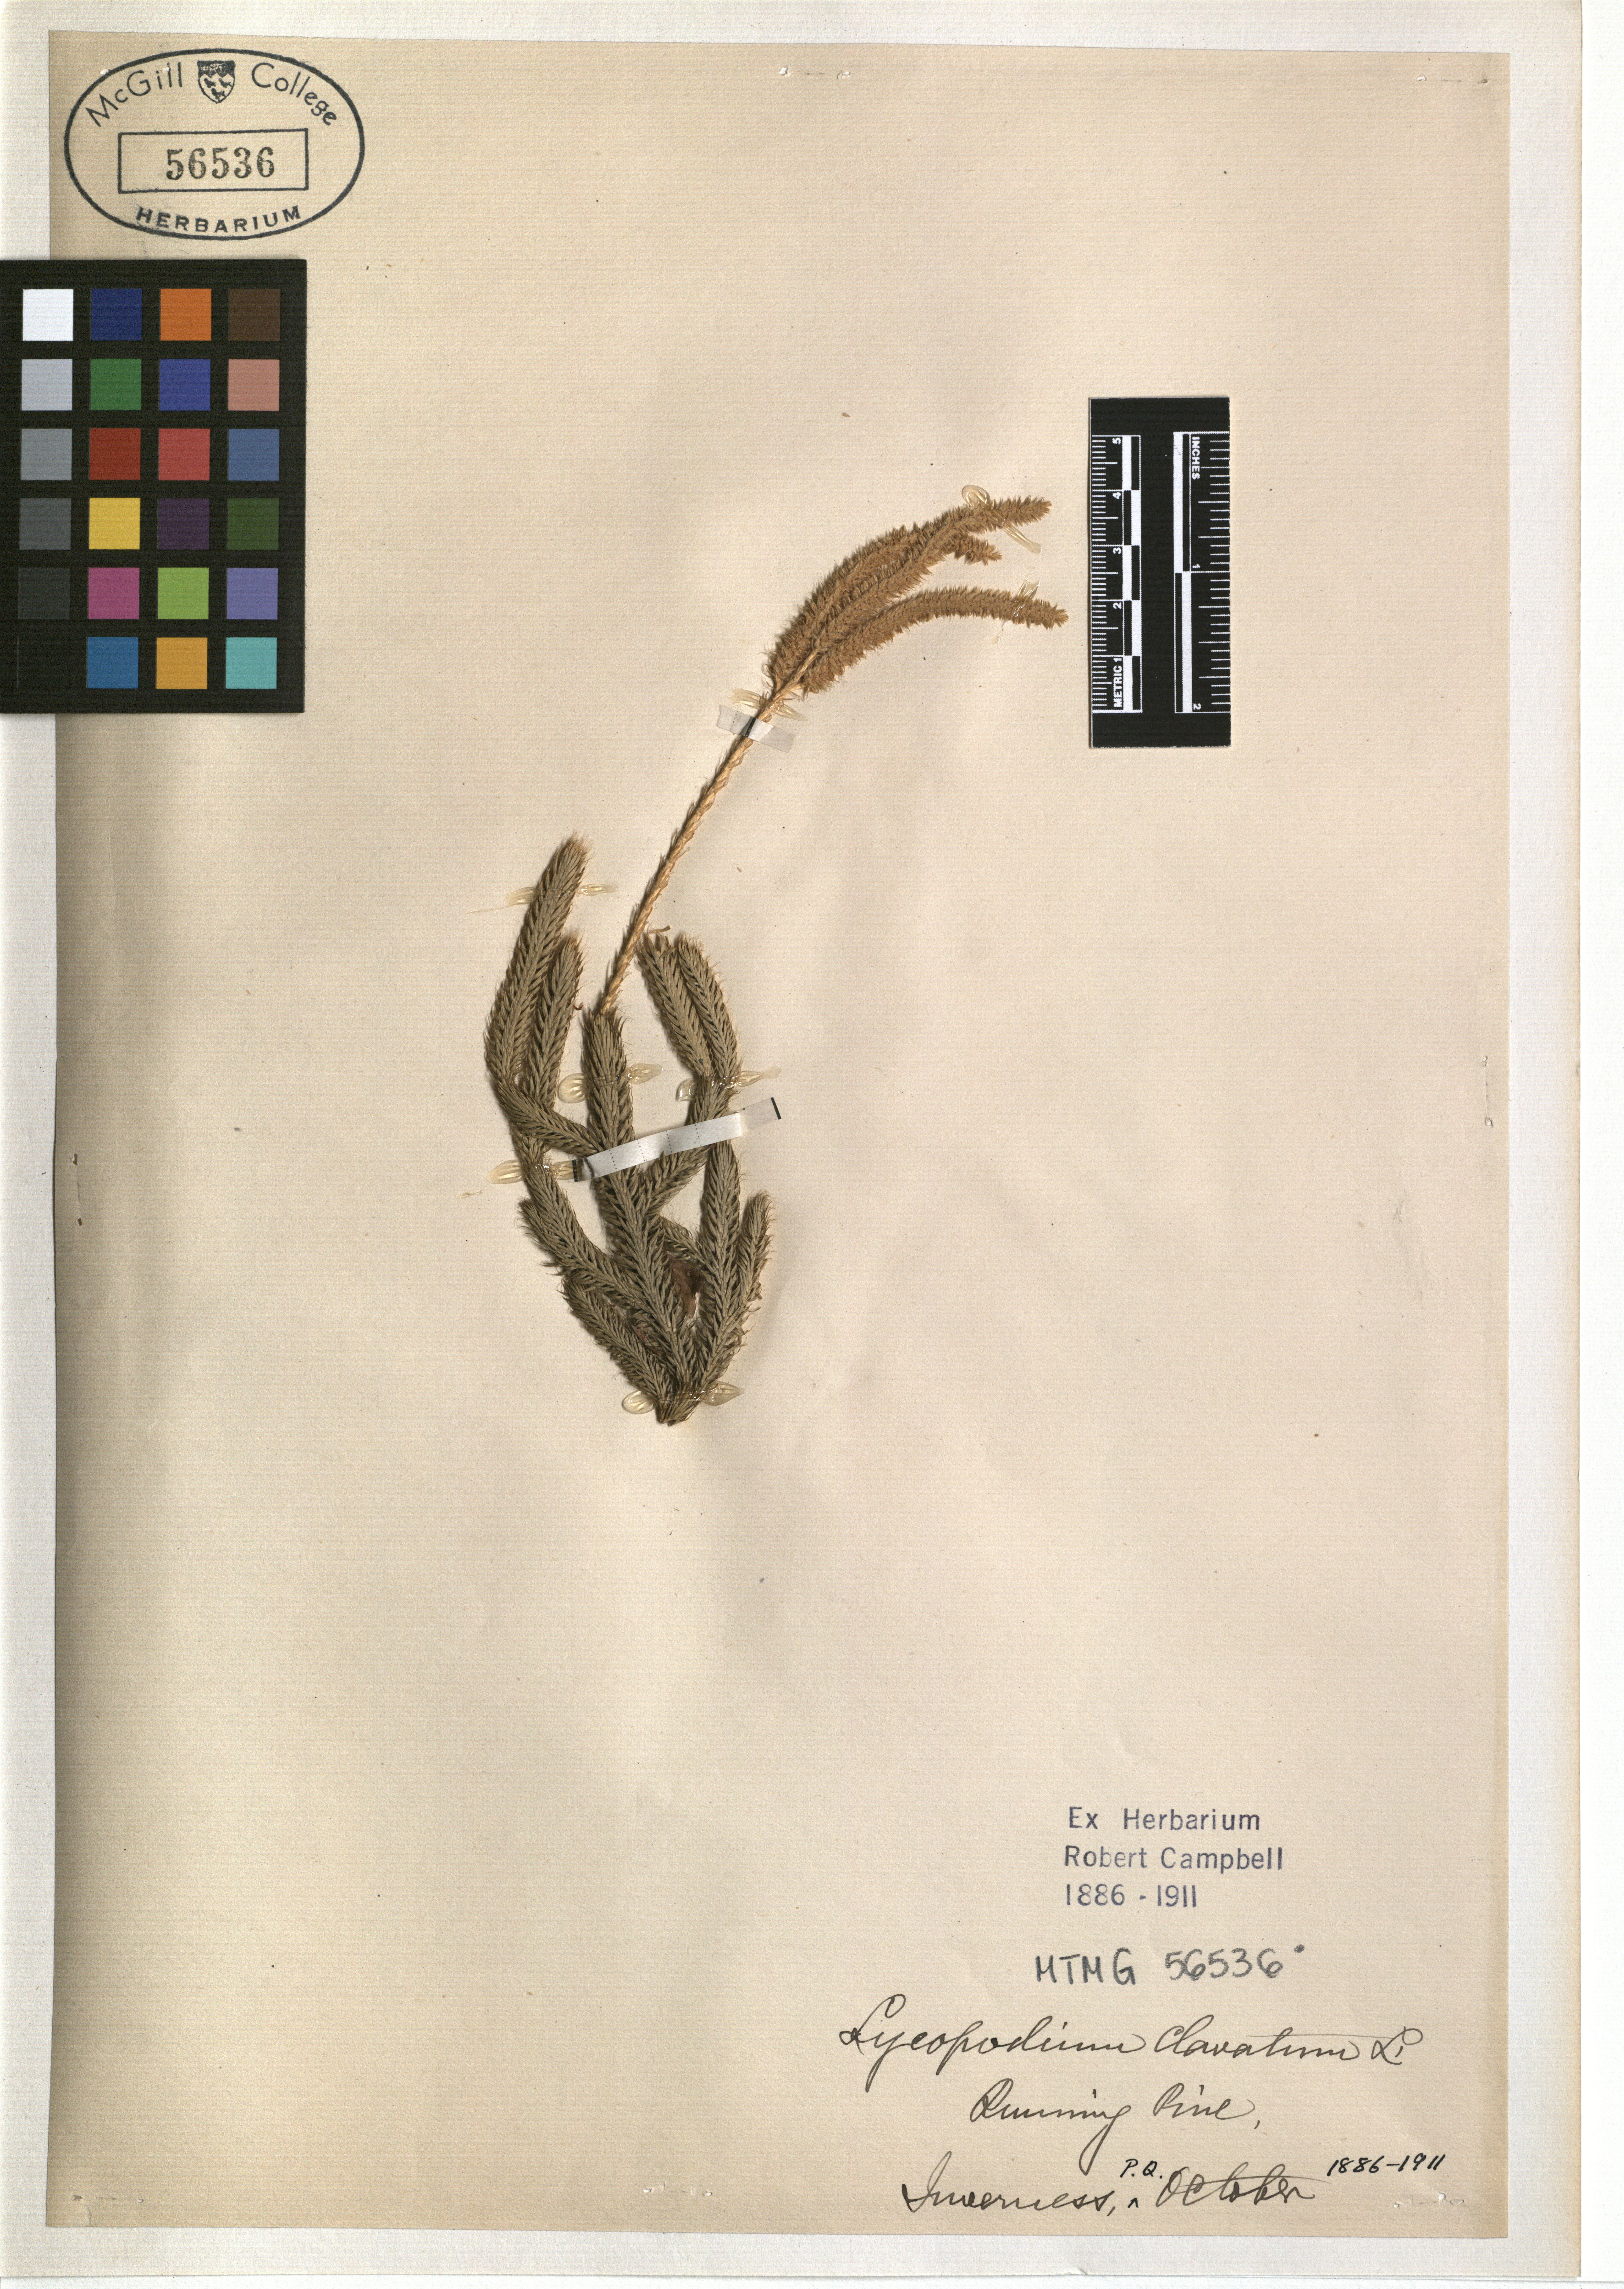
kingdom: Plantae
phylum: Tracheophyta
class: Lycopodiopsida
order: Lycopodiales
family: Lycopodiaceae
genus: Lycopodium
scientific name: Lycopodium clavatum
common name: Stag's-horn clubmoss
